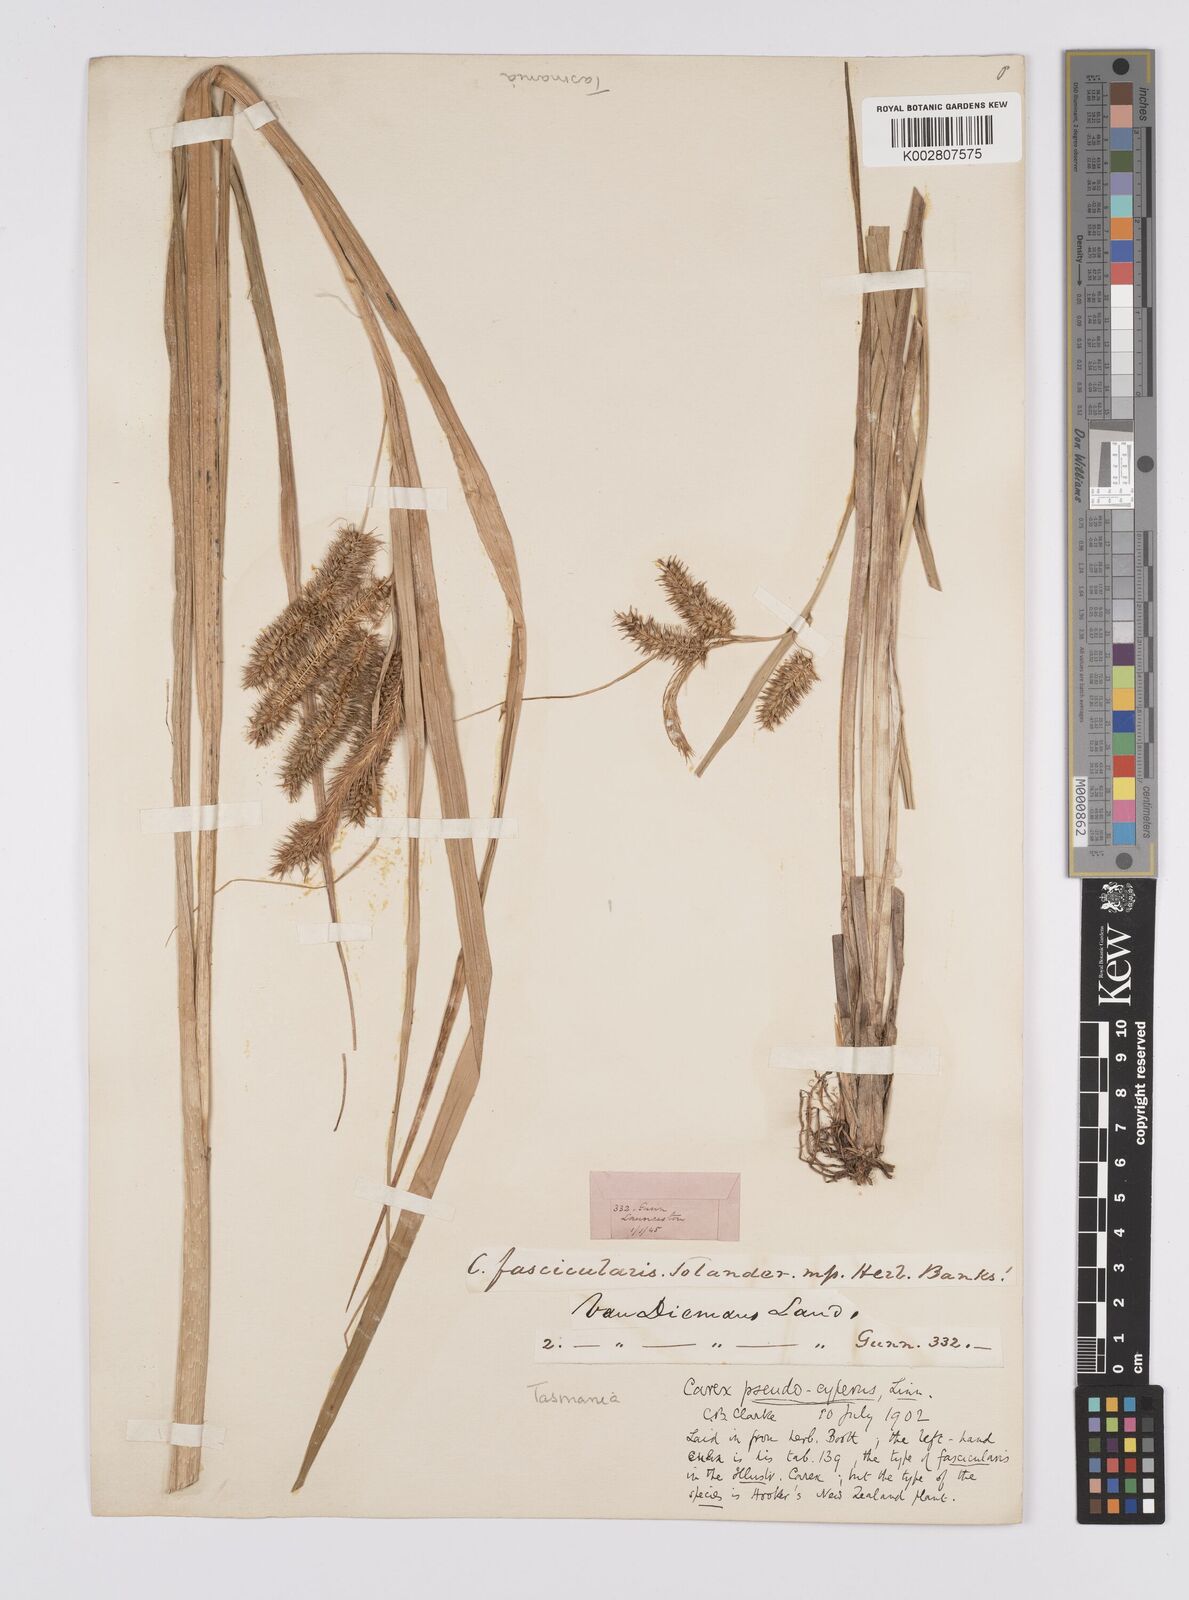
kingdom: Plantae
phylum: Tracheophyta
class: Liliopsida
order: Poales
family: Cyperaceae
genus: Carex
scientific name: Carex fascicularis
